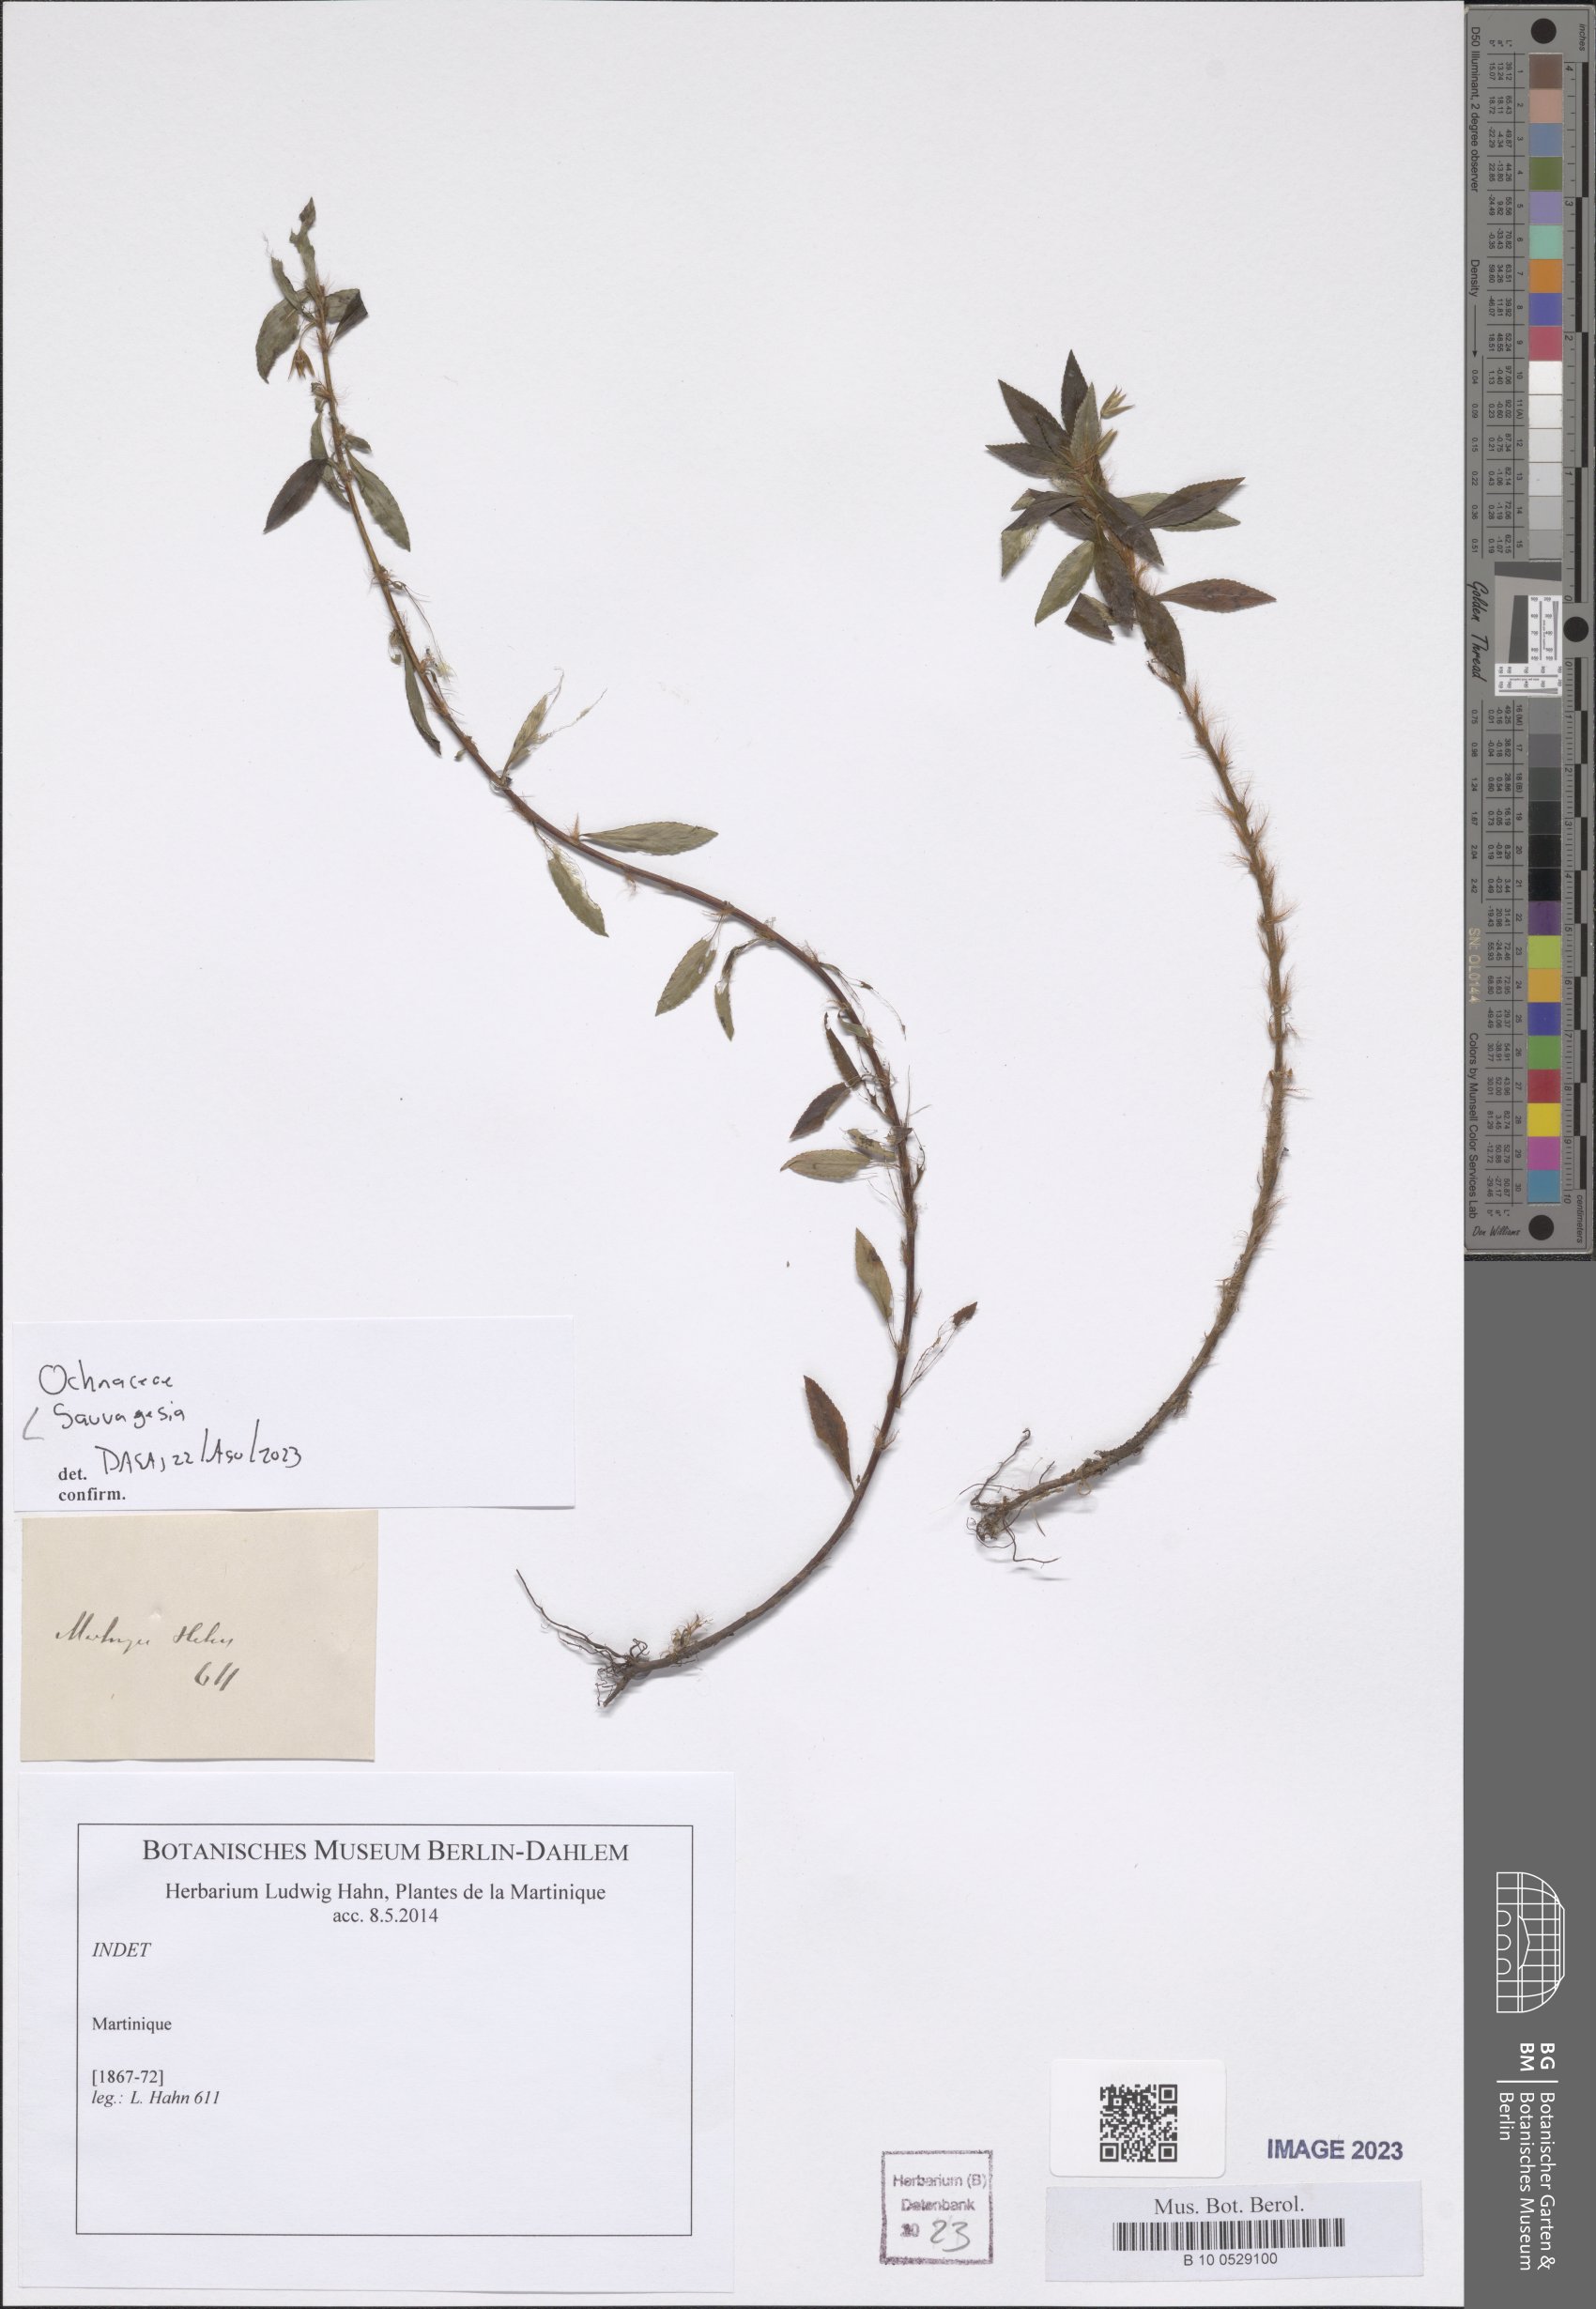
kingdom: Plantae
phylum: Tracheophyta
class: Magnoliopsida
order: Malpighiales
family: Ochnaceae
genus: Sauvagesia
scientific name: Sauvagesia
